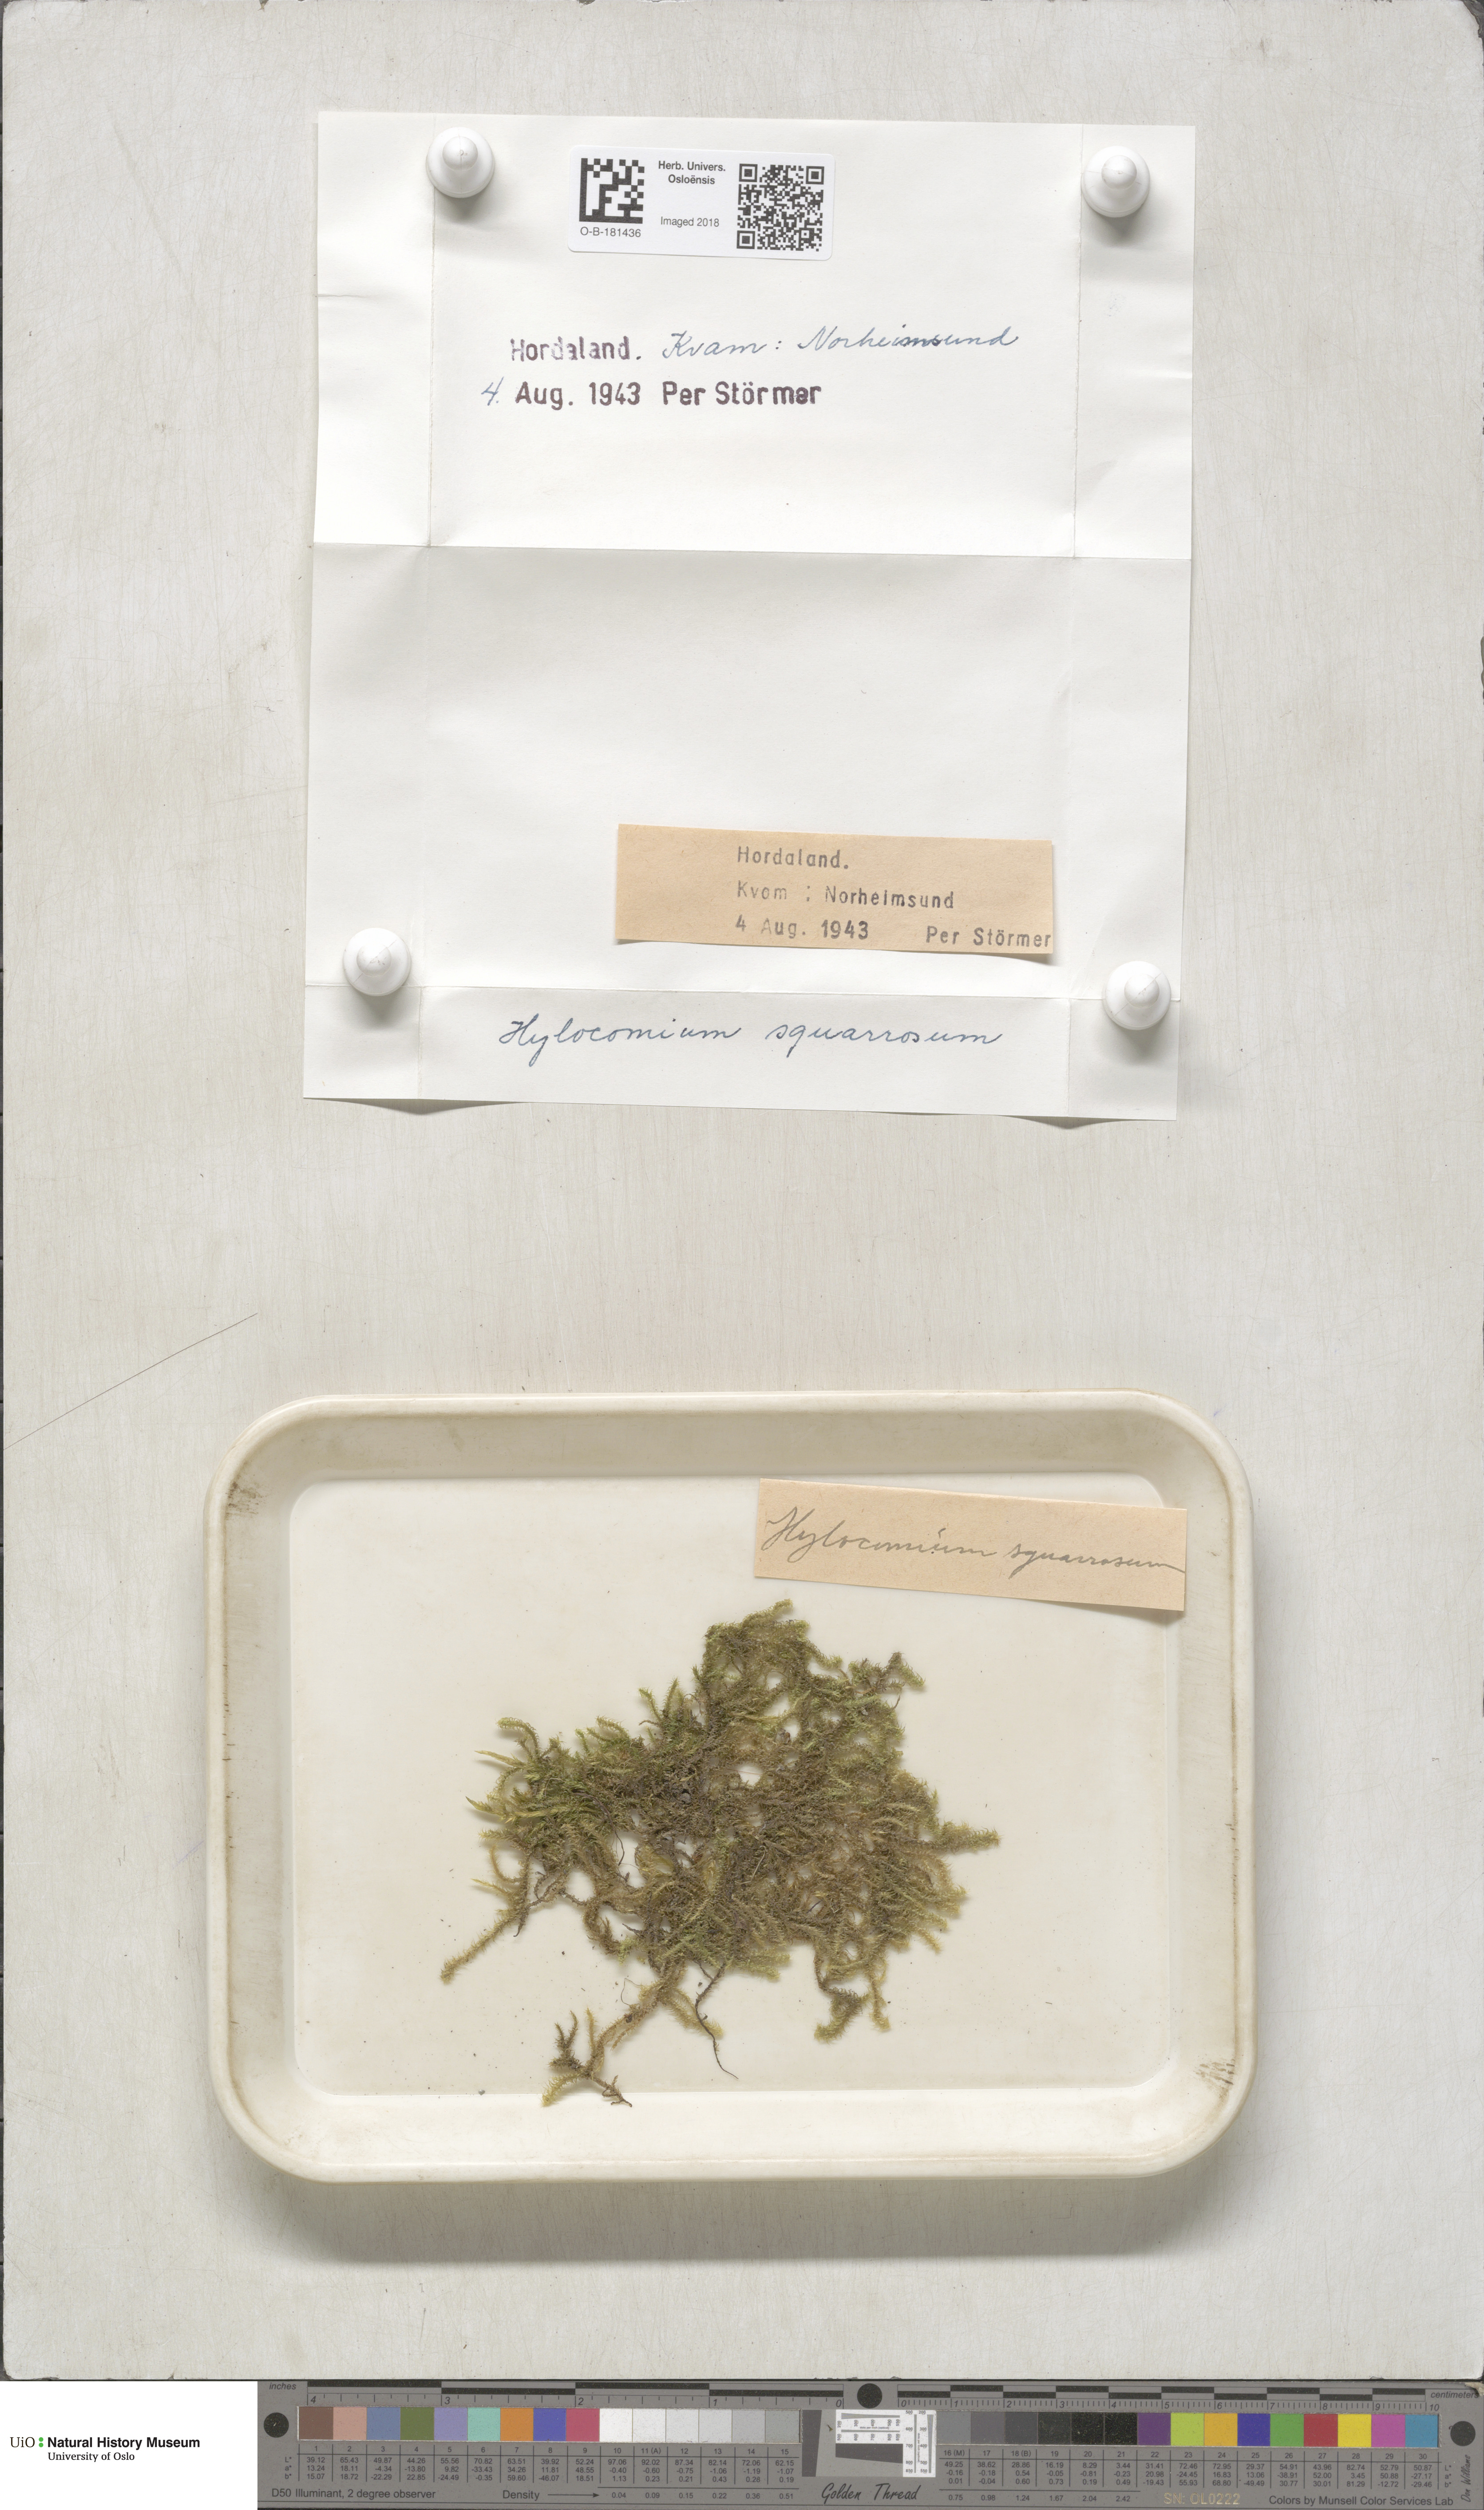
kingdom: Plantae
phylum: Bryophyta
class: Bryopsida
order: Hypnales
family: Hylocomiaceae
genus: Rhytidiadelphus
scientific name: Rhytidiadelphus squarrosus
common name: Springy turf-moss
